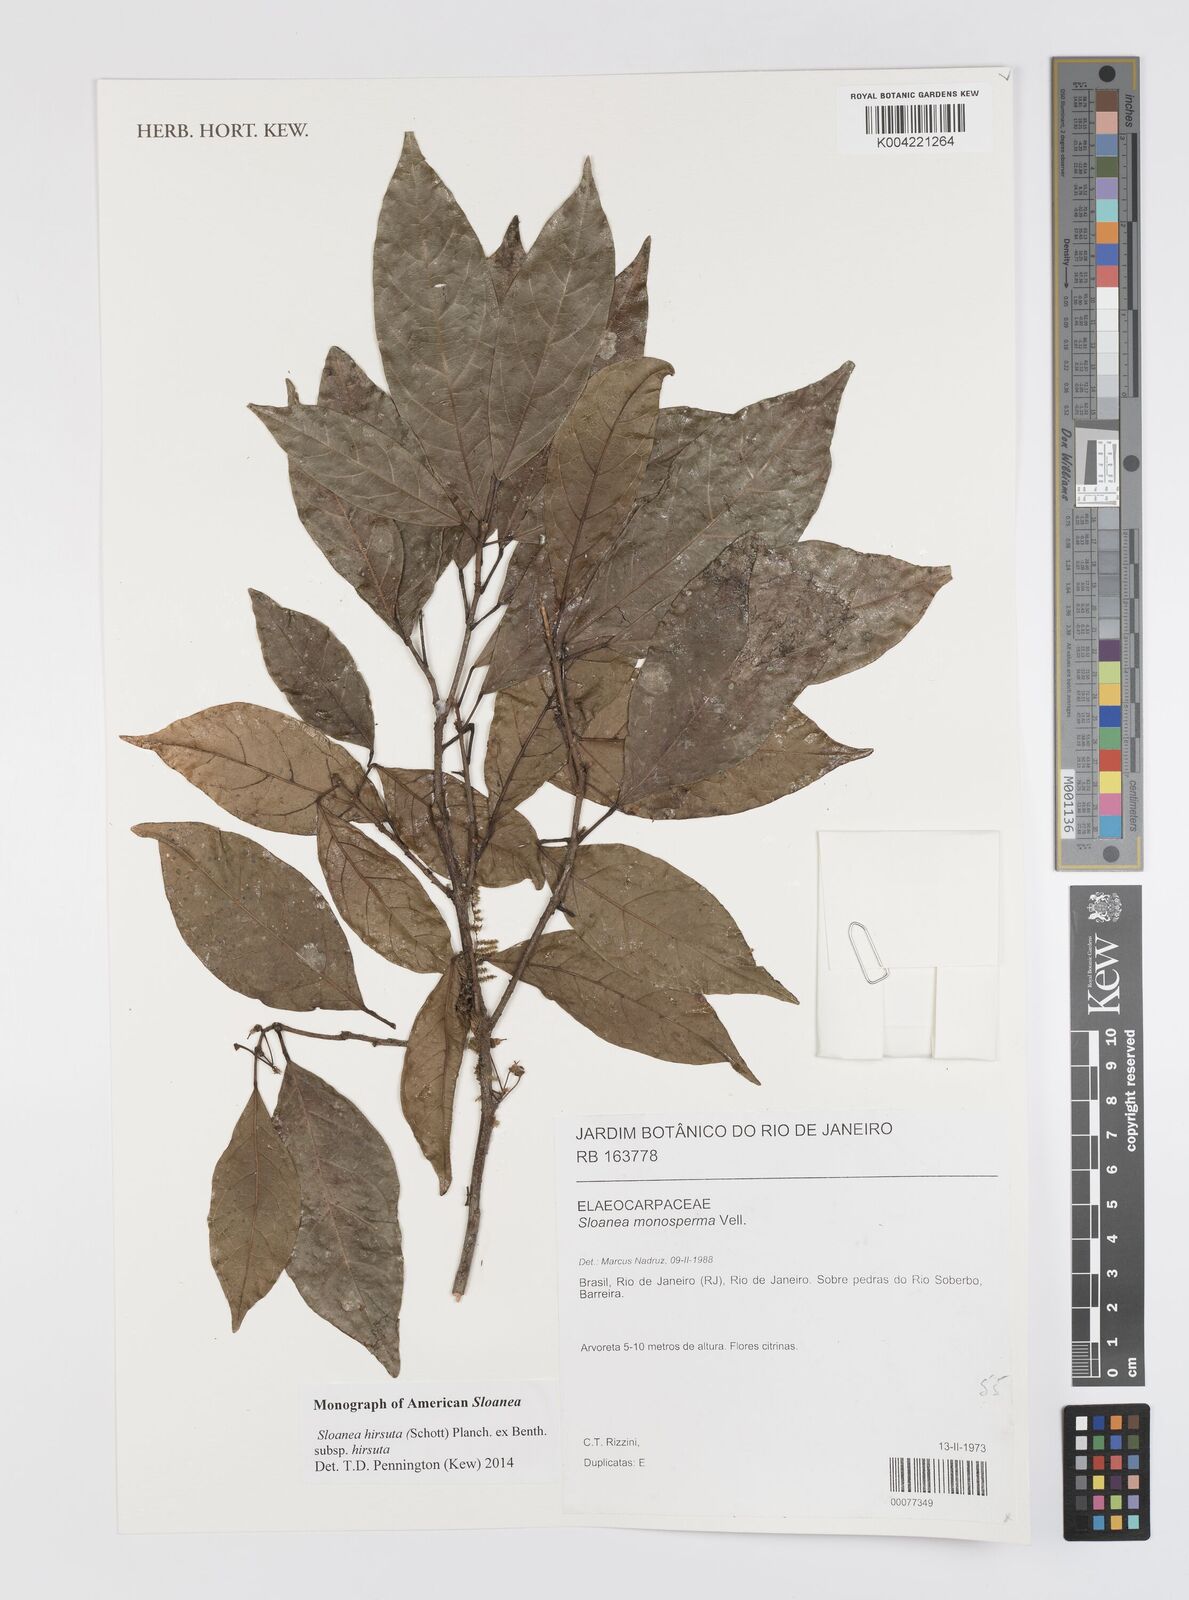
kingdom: Plantae
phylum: Tracheophyta
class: Magnoliopsida
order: Oxalidales
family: Elaeocarpaceae
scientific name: Elaeocarpaceae
